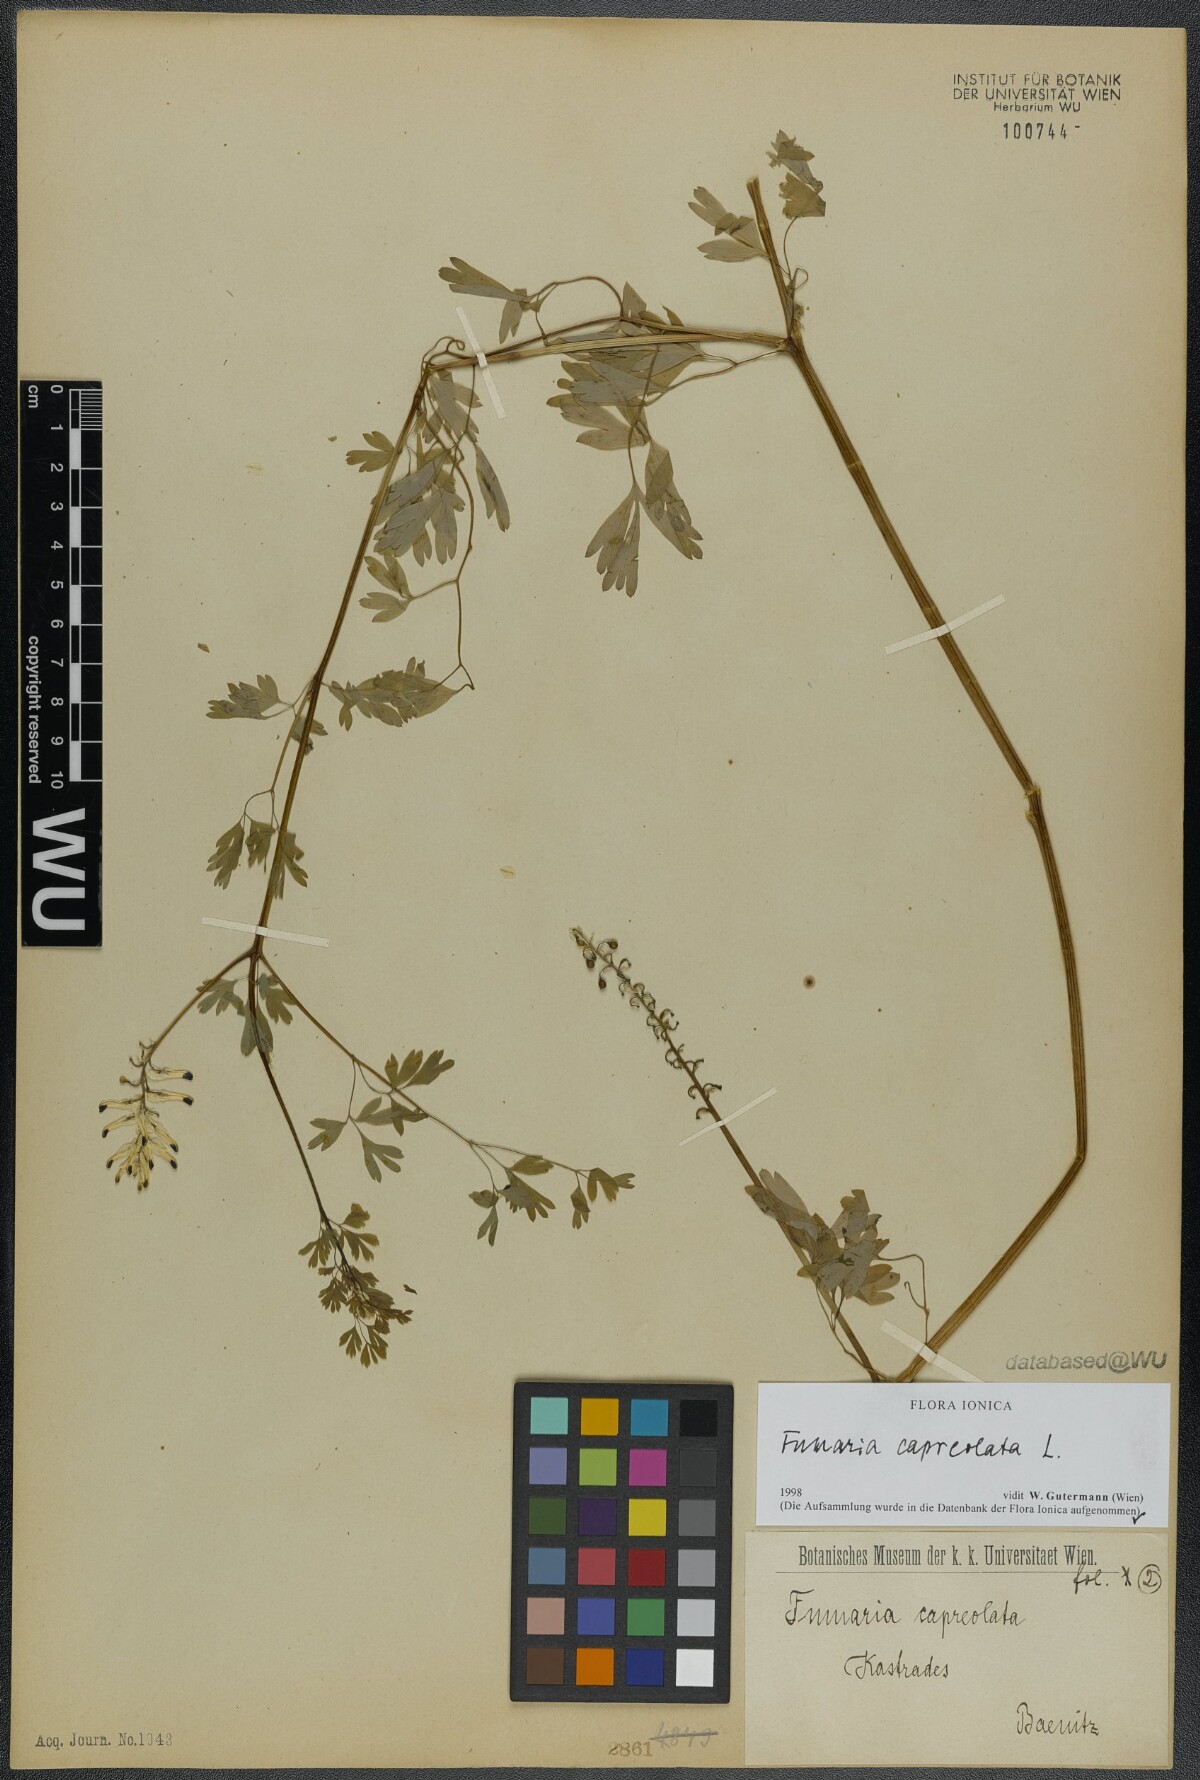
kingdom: Plantae
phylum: Tracheophyta
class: Magnoliopsida
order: Ranunculales
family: Papaveraceae
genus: Fumaria
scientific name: Fumaria capreolata
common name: White ramping-fumitory
